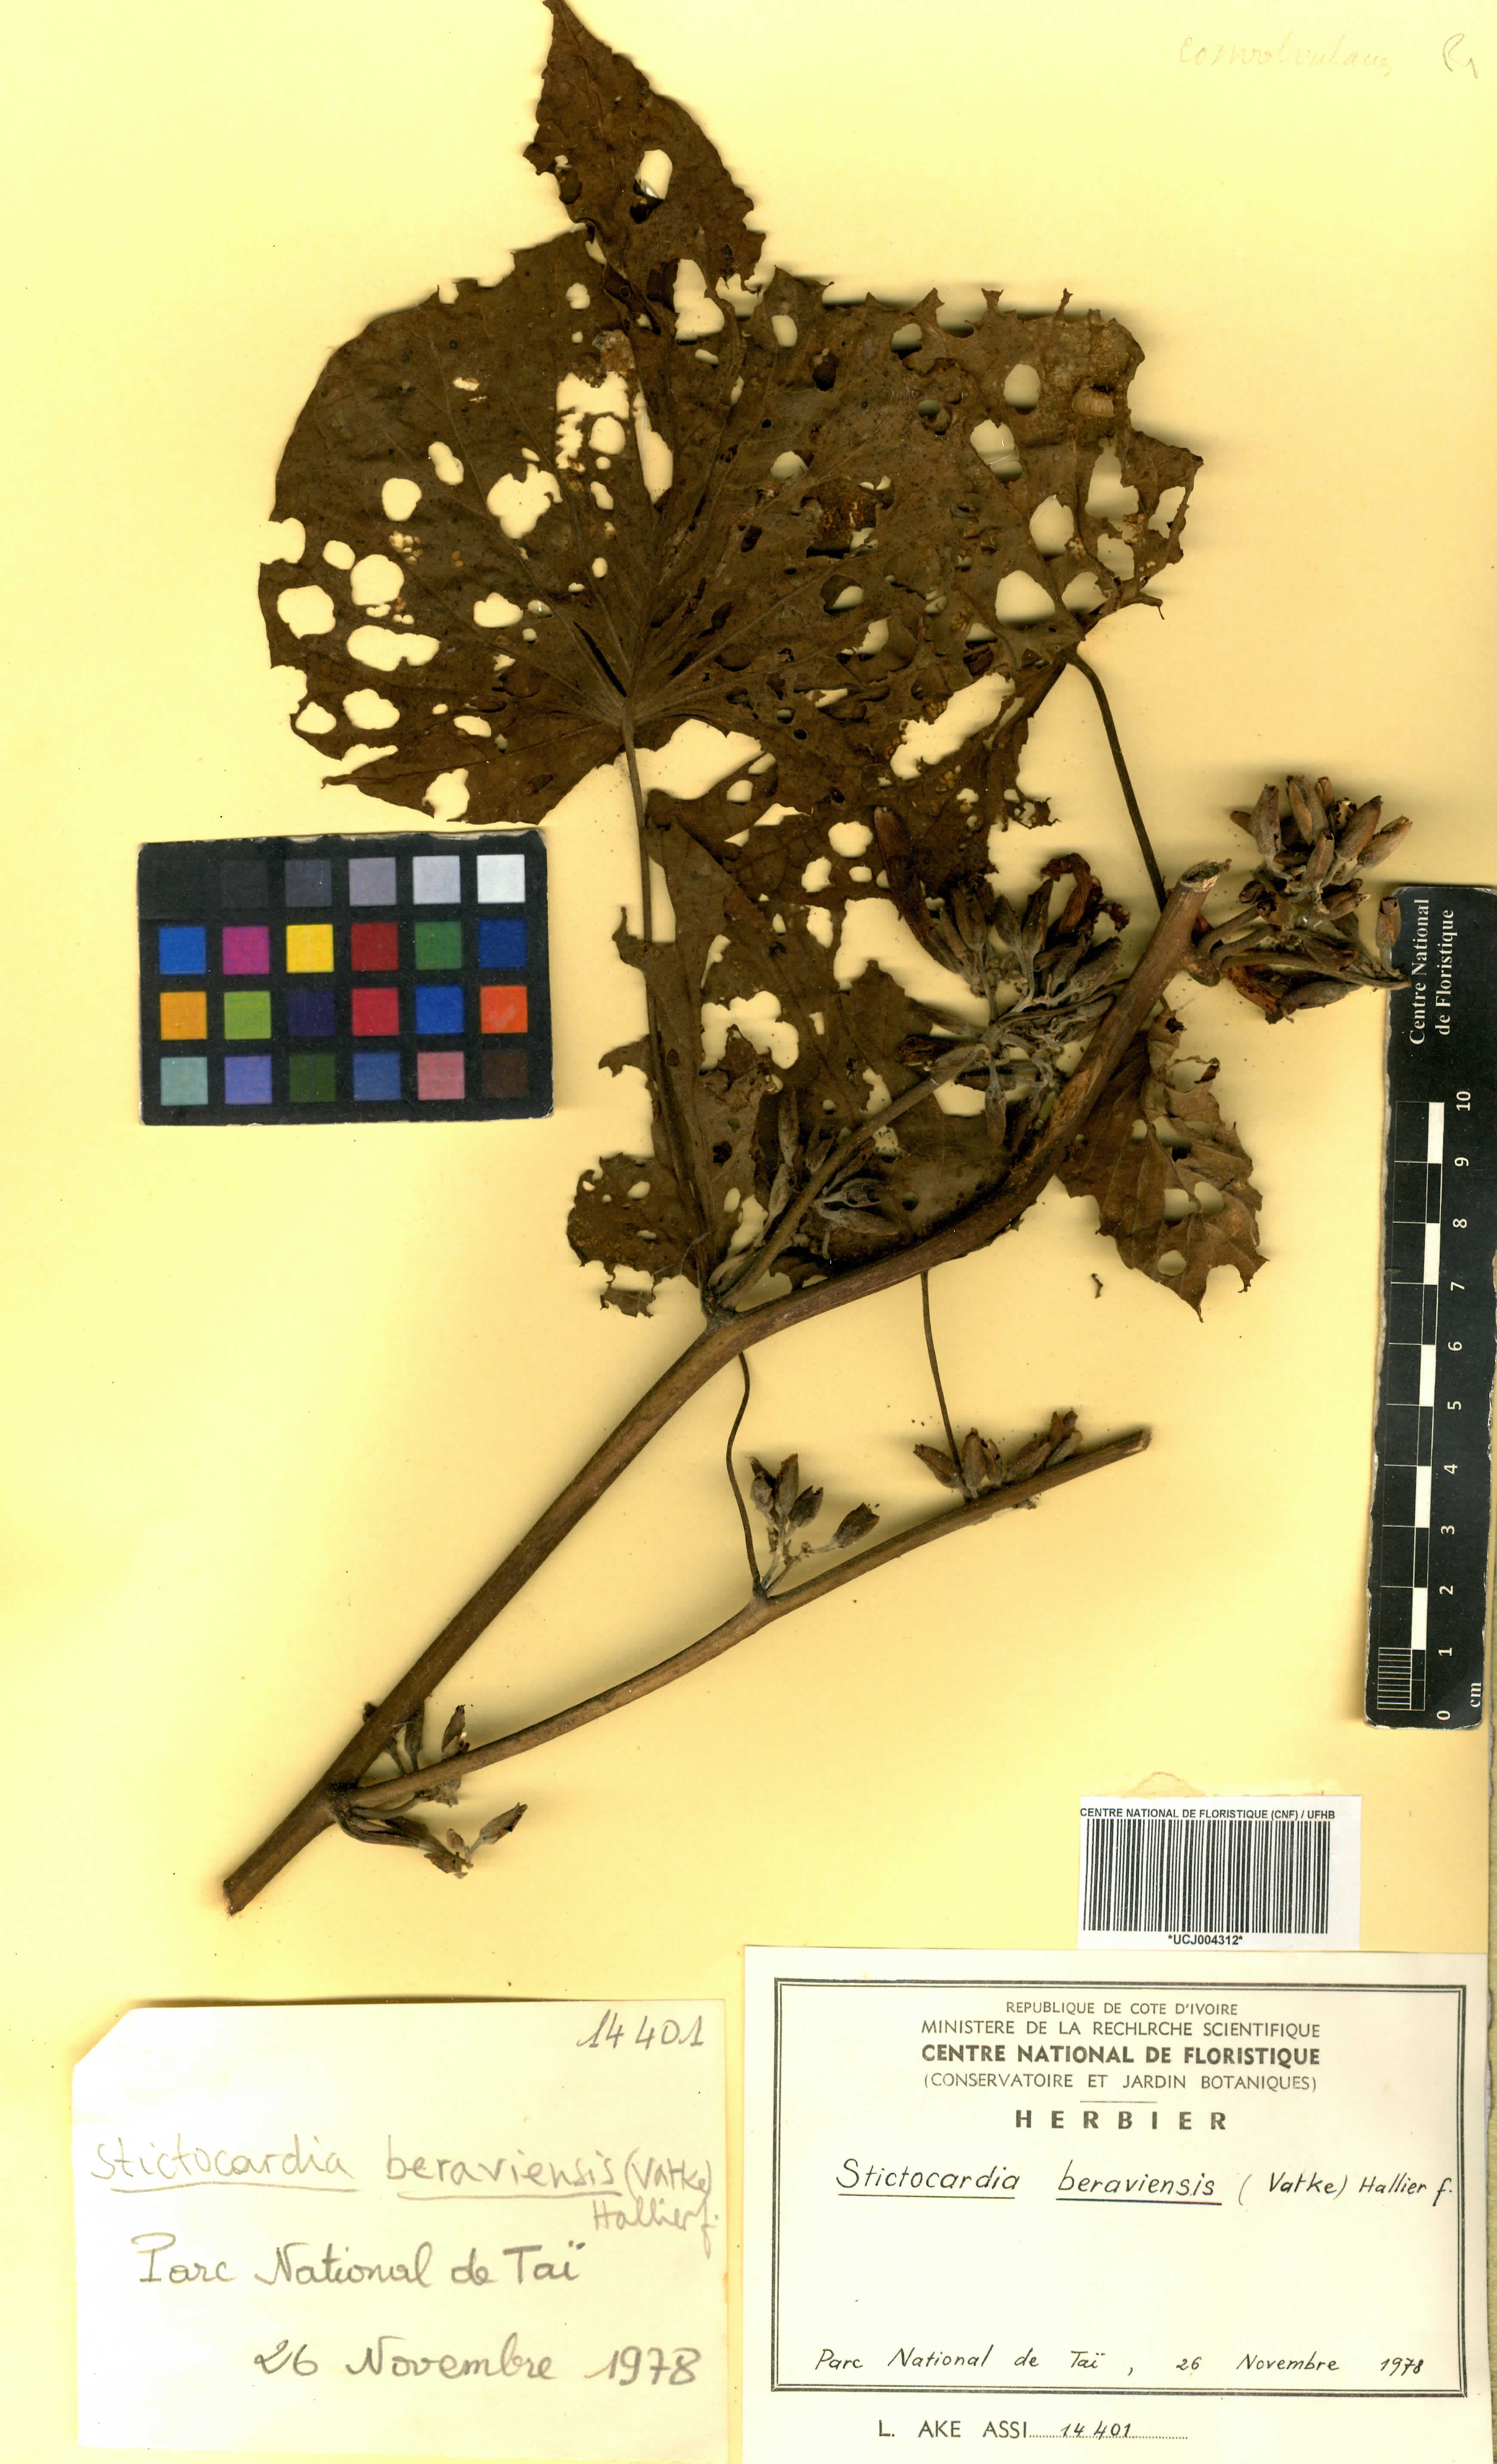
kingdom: Plantae
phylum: Tracheophyta
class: Magnoliopsida
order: Solanales
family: Convolvulaceae
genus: Stictocardia
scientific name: Stictocardia beraviensis
